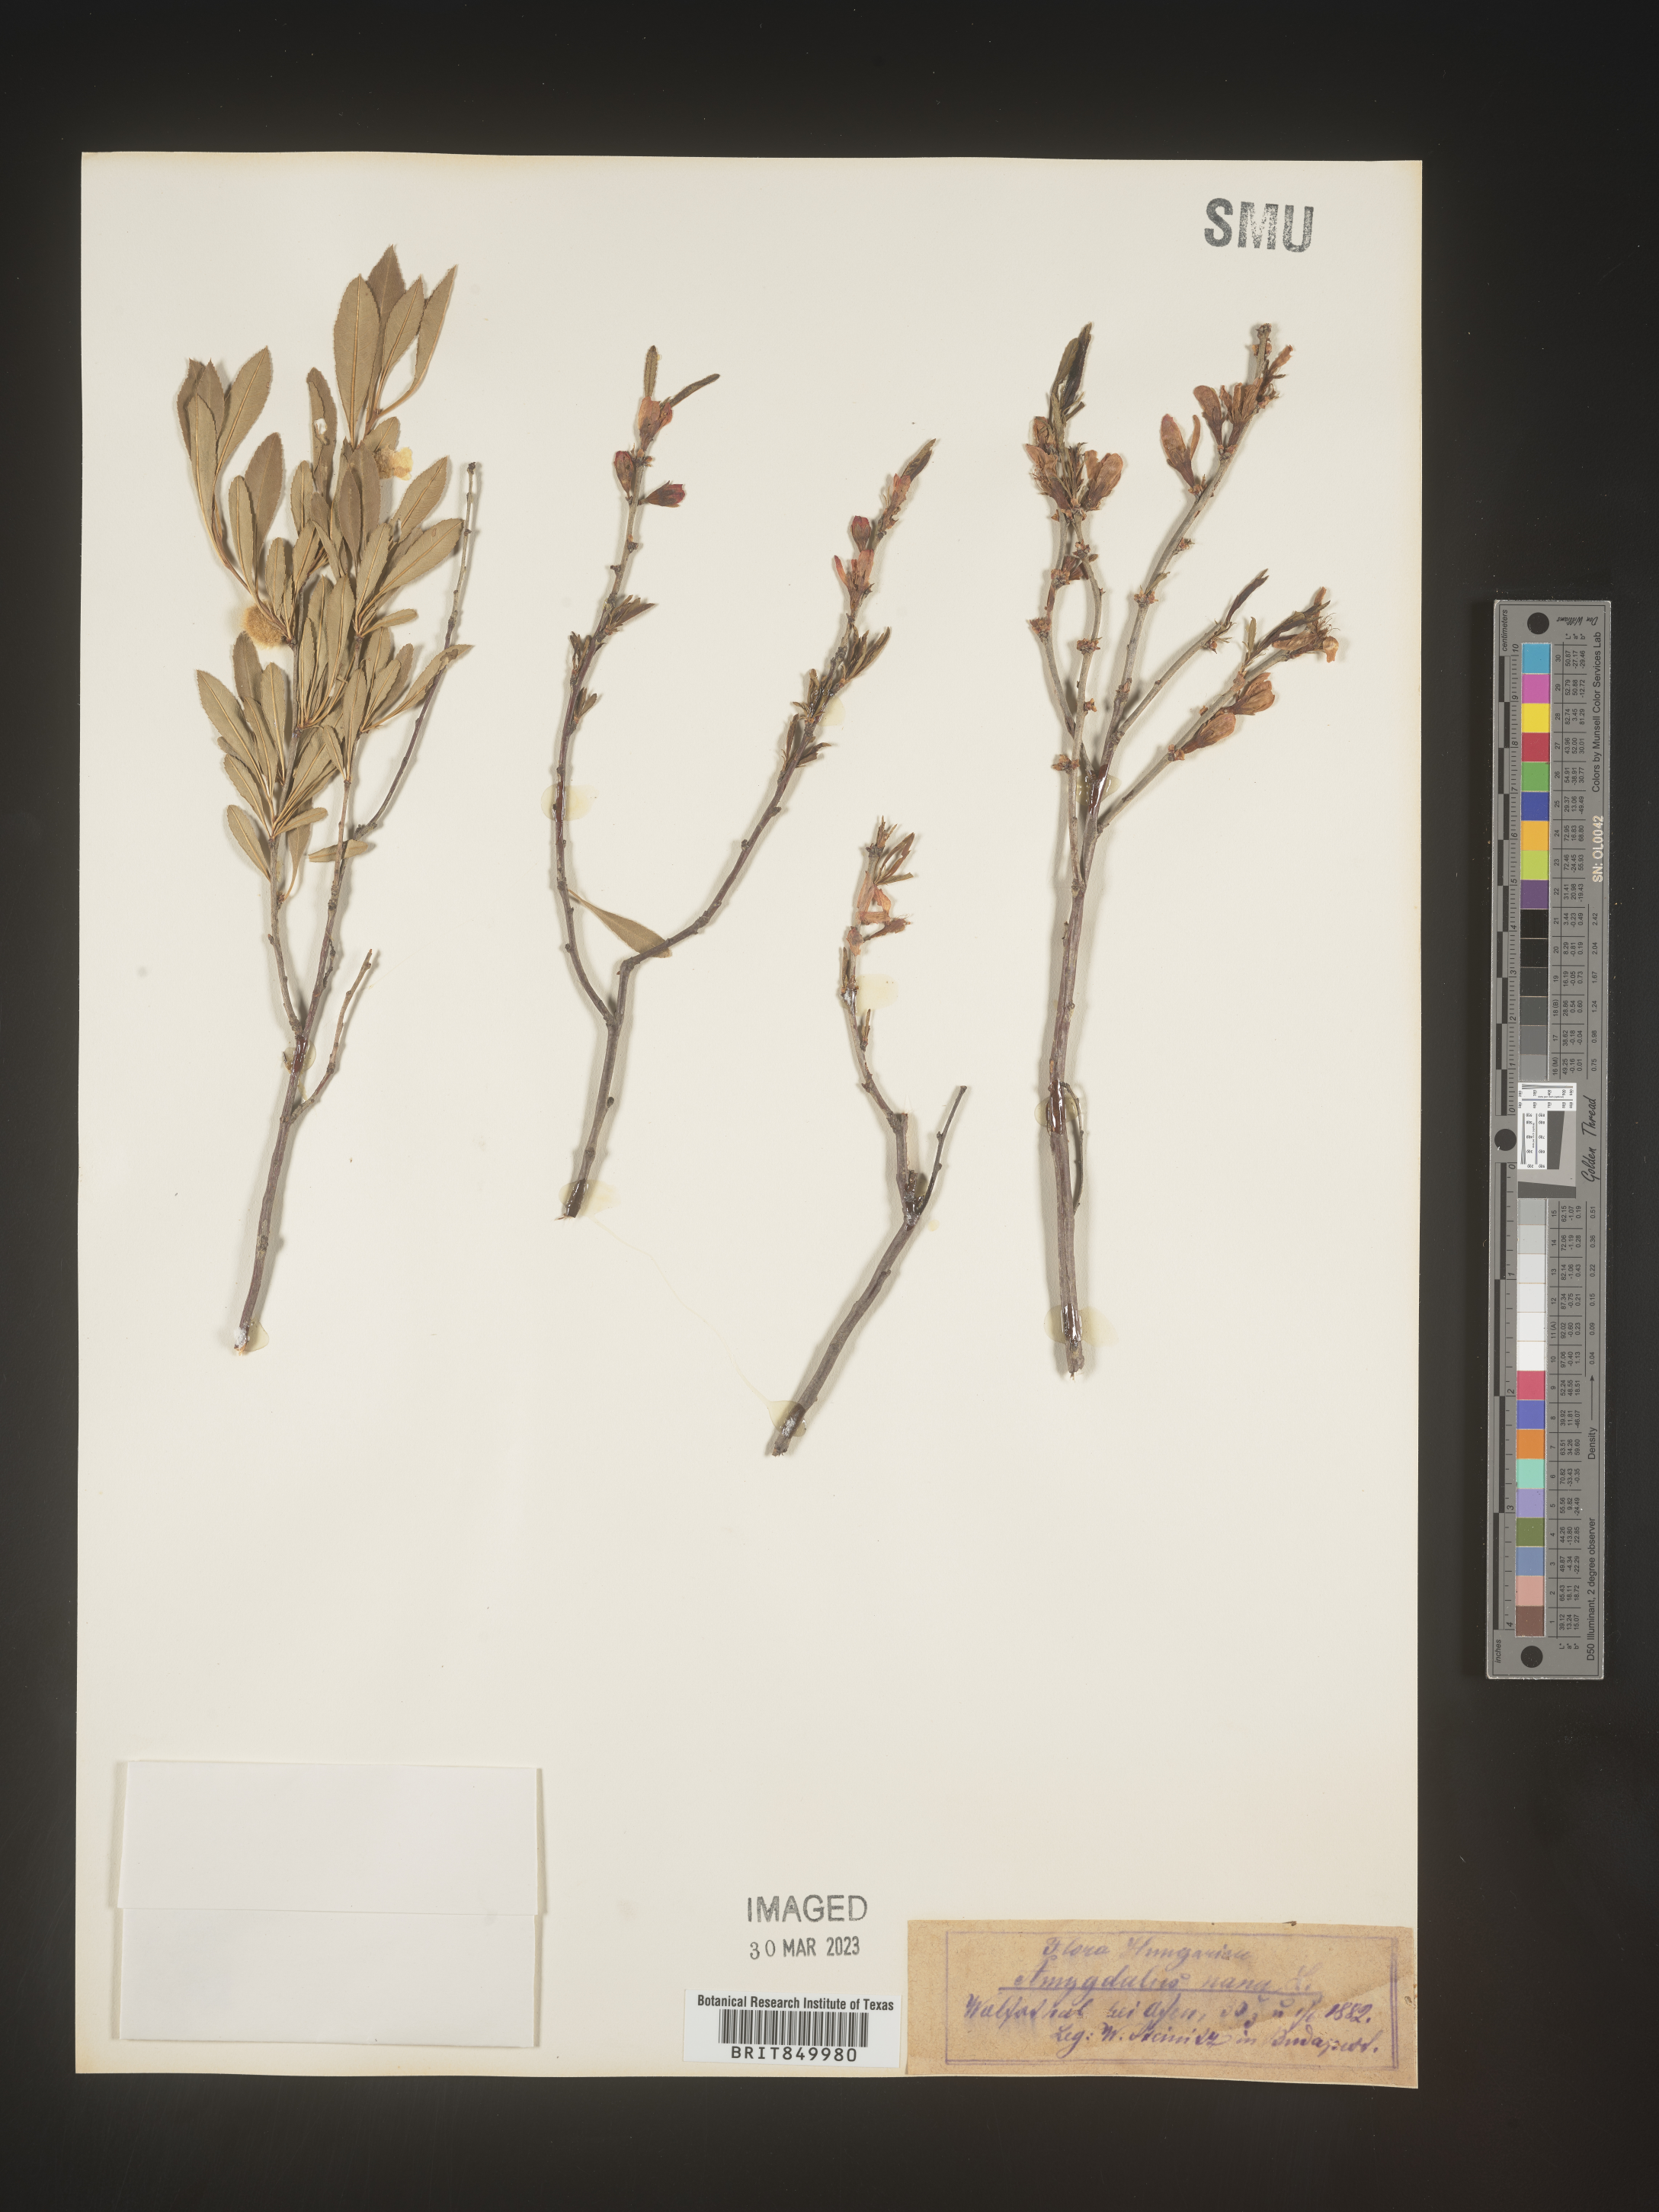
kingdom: Plantae
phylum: Tracheophyta
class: Magnoliopsida
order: Rosales
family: Rosaceae
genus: Prunus
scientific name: Prunus
